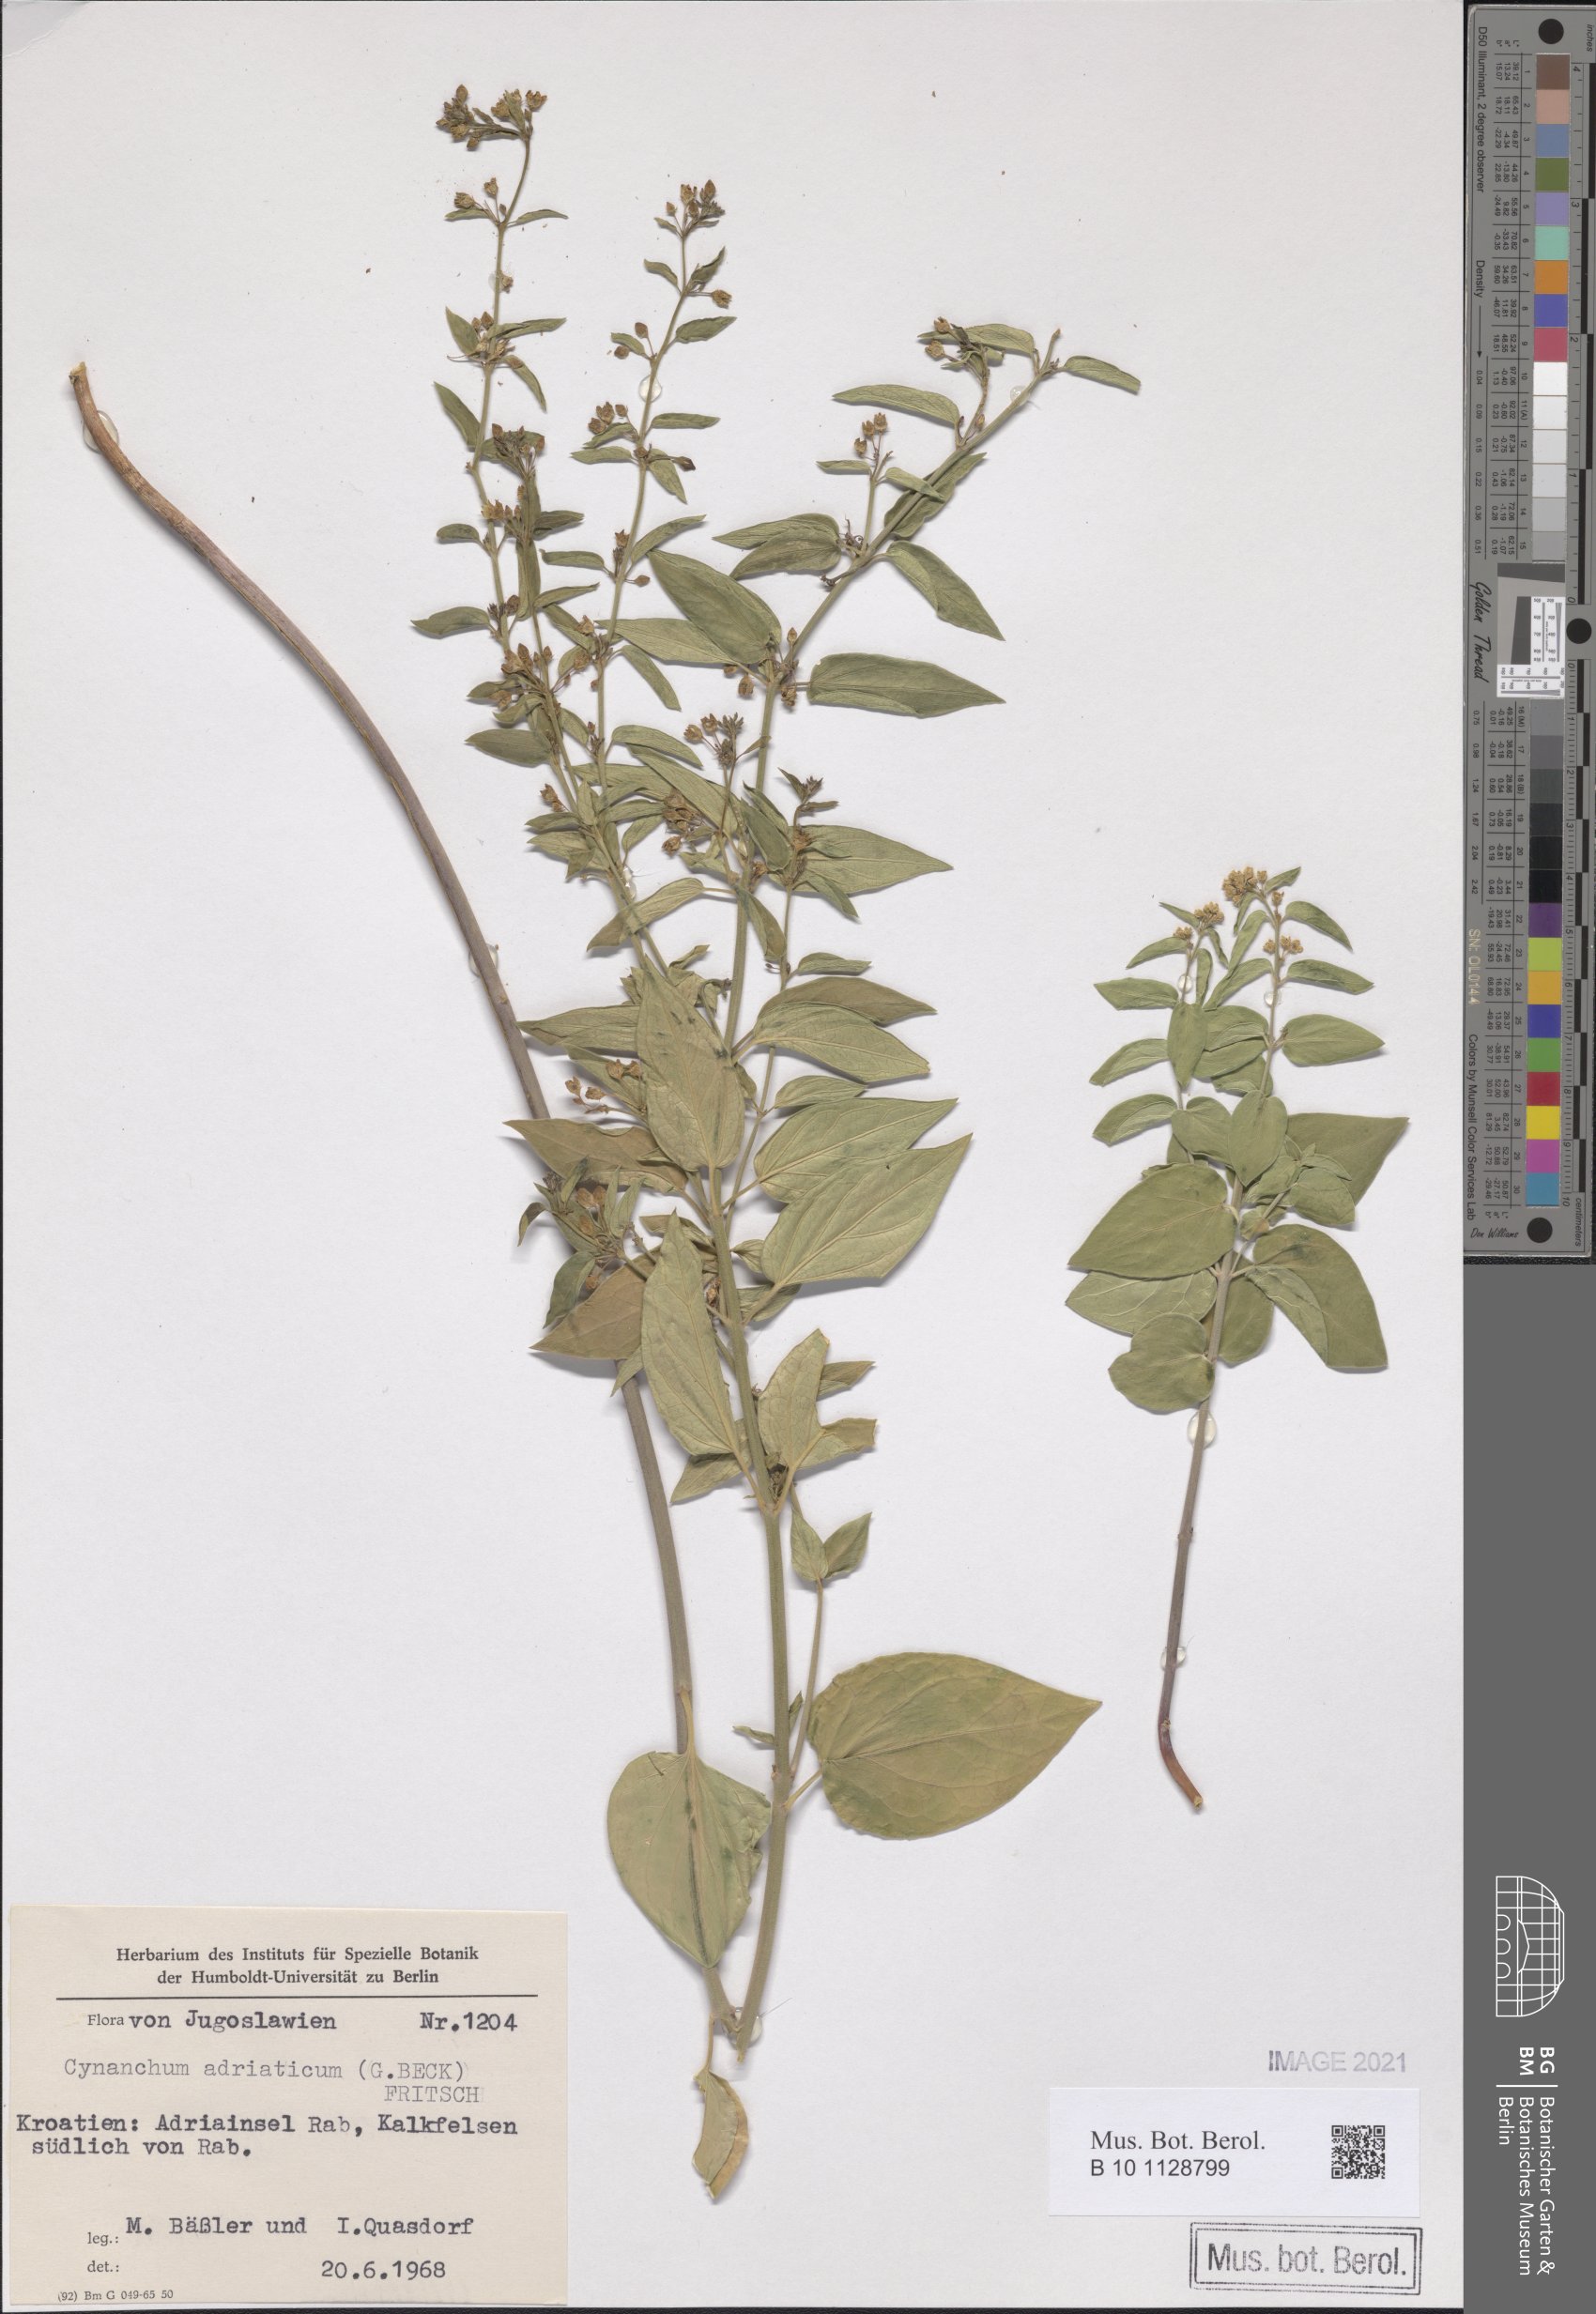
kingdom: Plantae
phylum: Tracheophyta
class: Magnoliopsida
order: Gentianales
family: Apocynaceae
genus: Vincetoxicum
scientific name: Vincetoxicum hirundinaria
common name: White swallowwort
